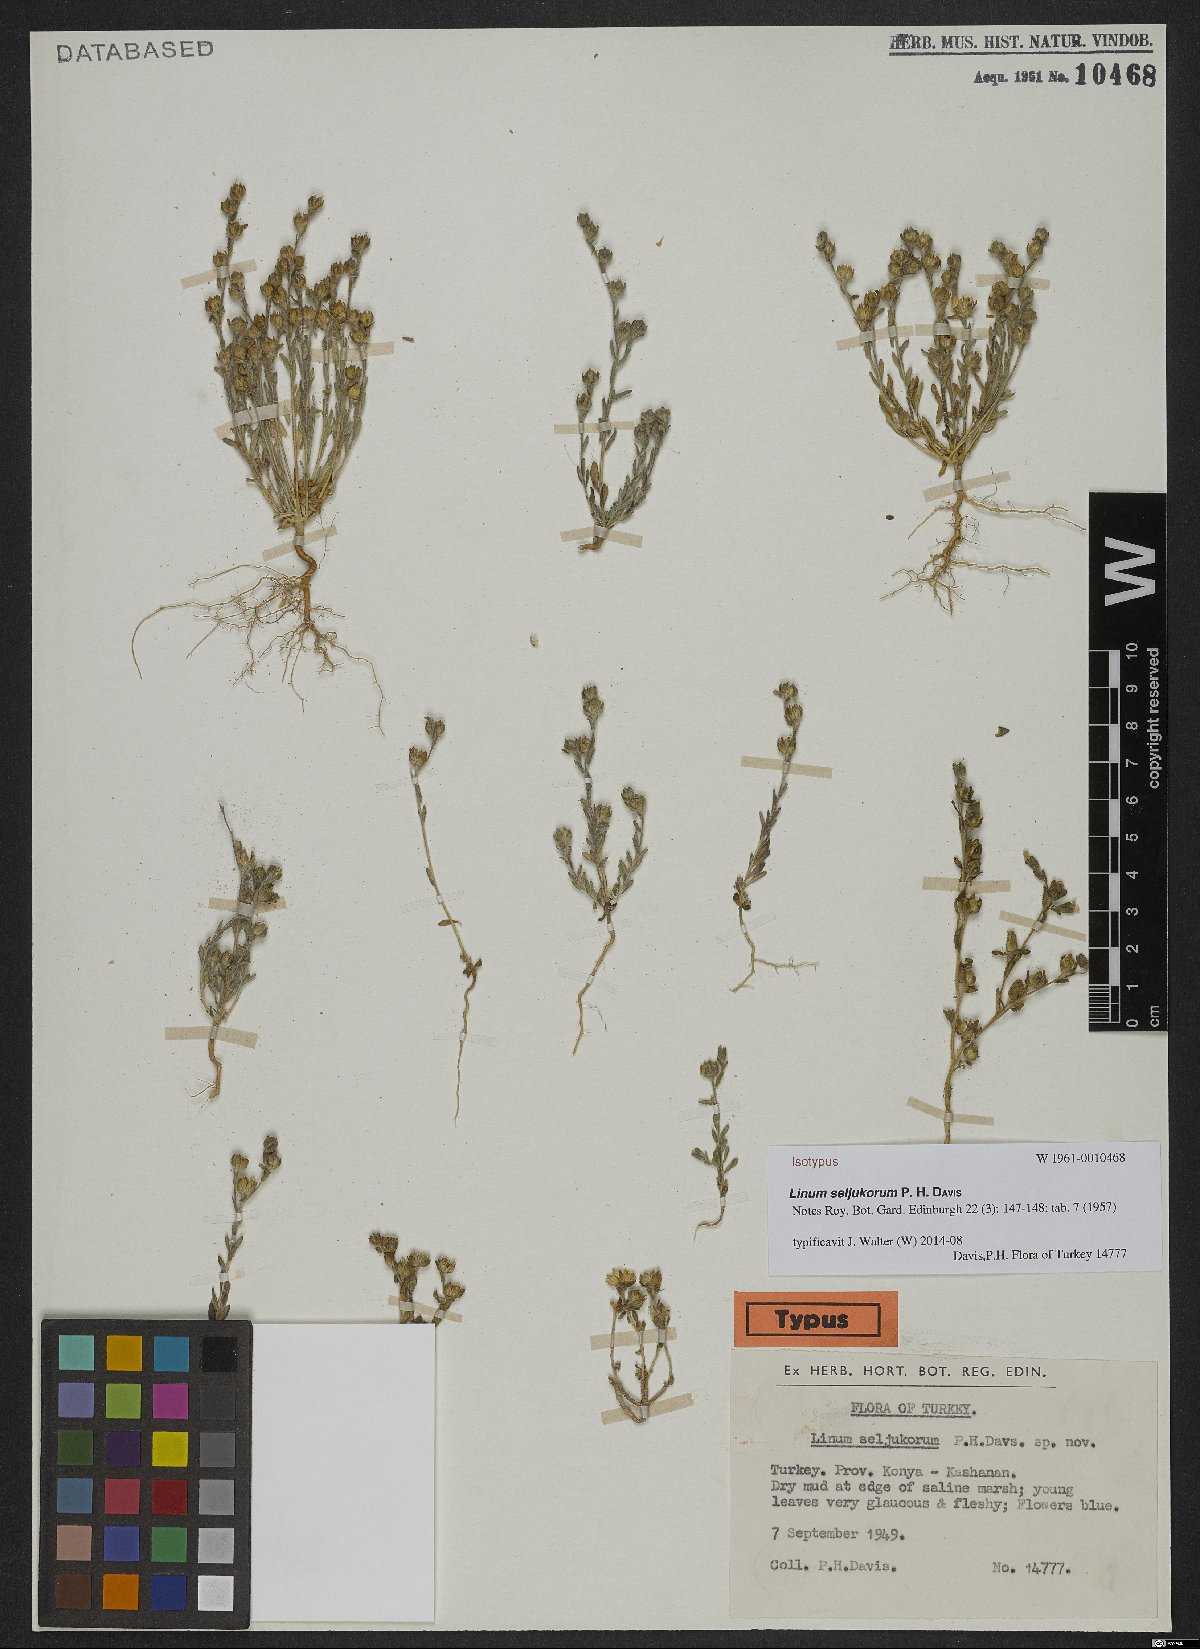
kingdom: Plantae
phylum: Tracheophyta
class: Magnoliopsida
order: Malpighiales
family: Linaceae
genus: Linum
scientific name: Linum seljukorum
